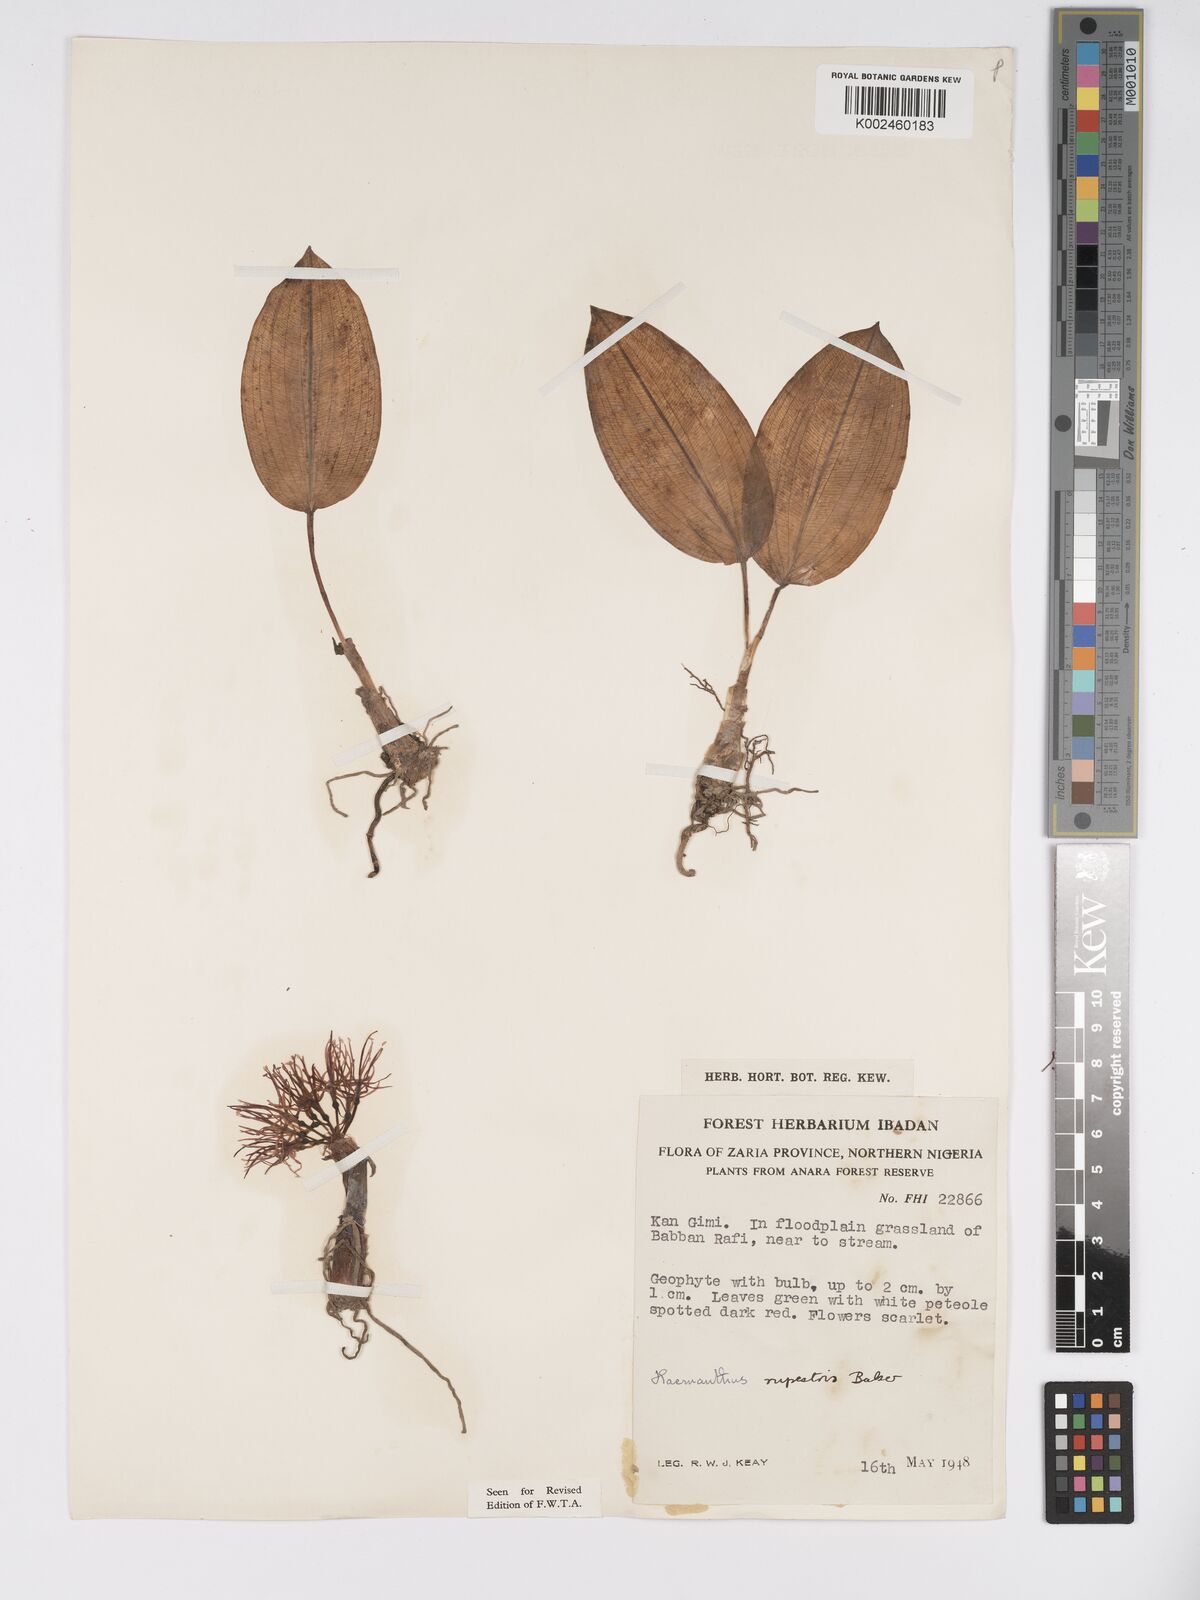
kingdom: Plantae
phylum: Tracheophyta
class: Liliopsida
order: Asparagales
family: Amaryllidaceae
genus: Scadoxus
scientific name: Scadoxus multiflorus
